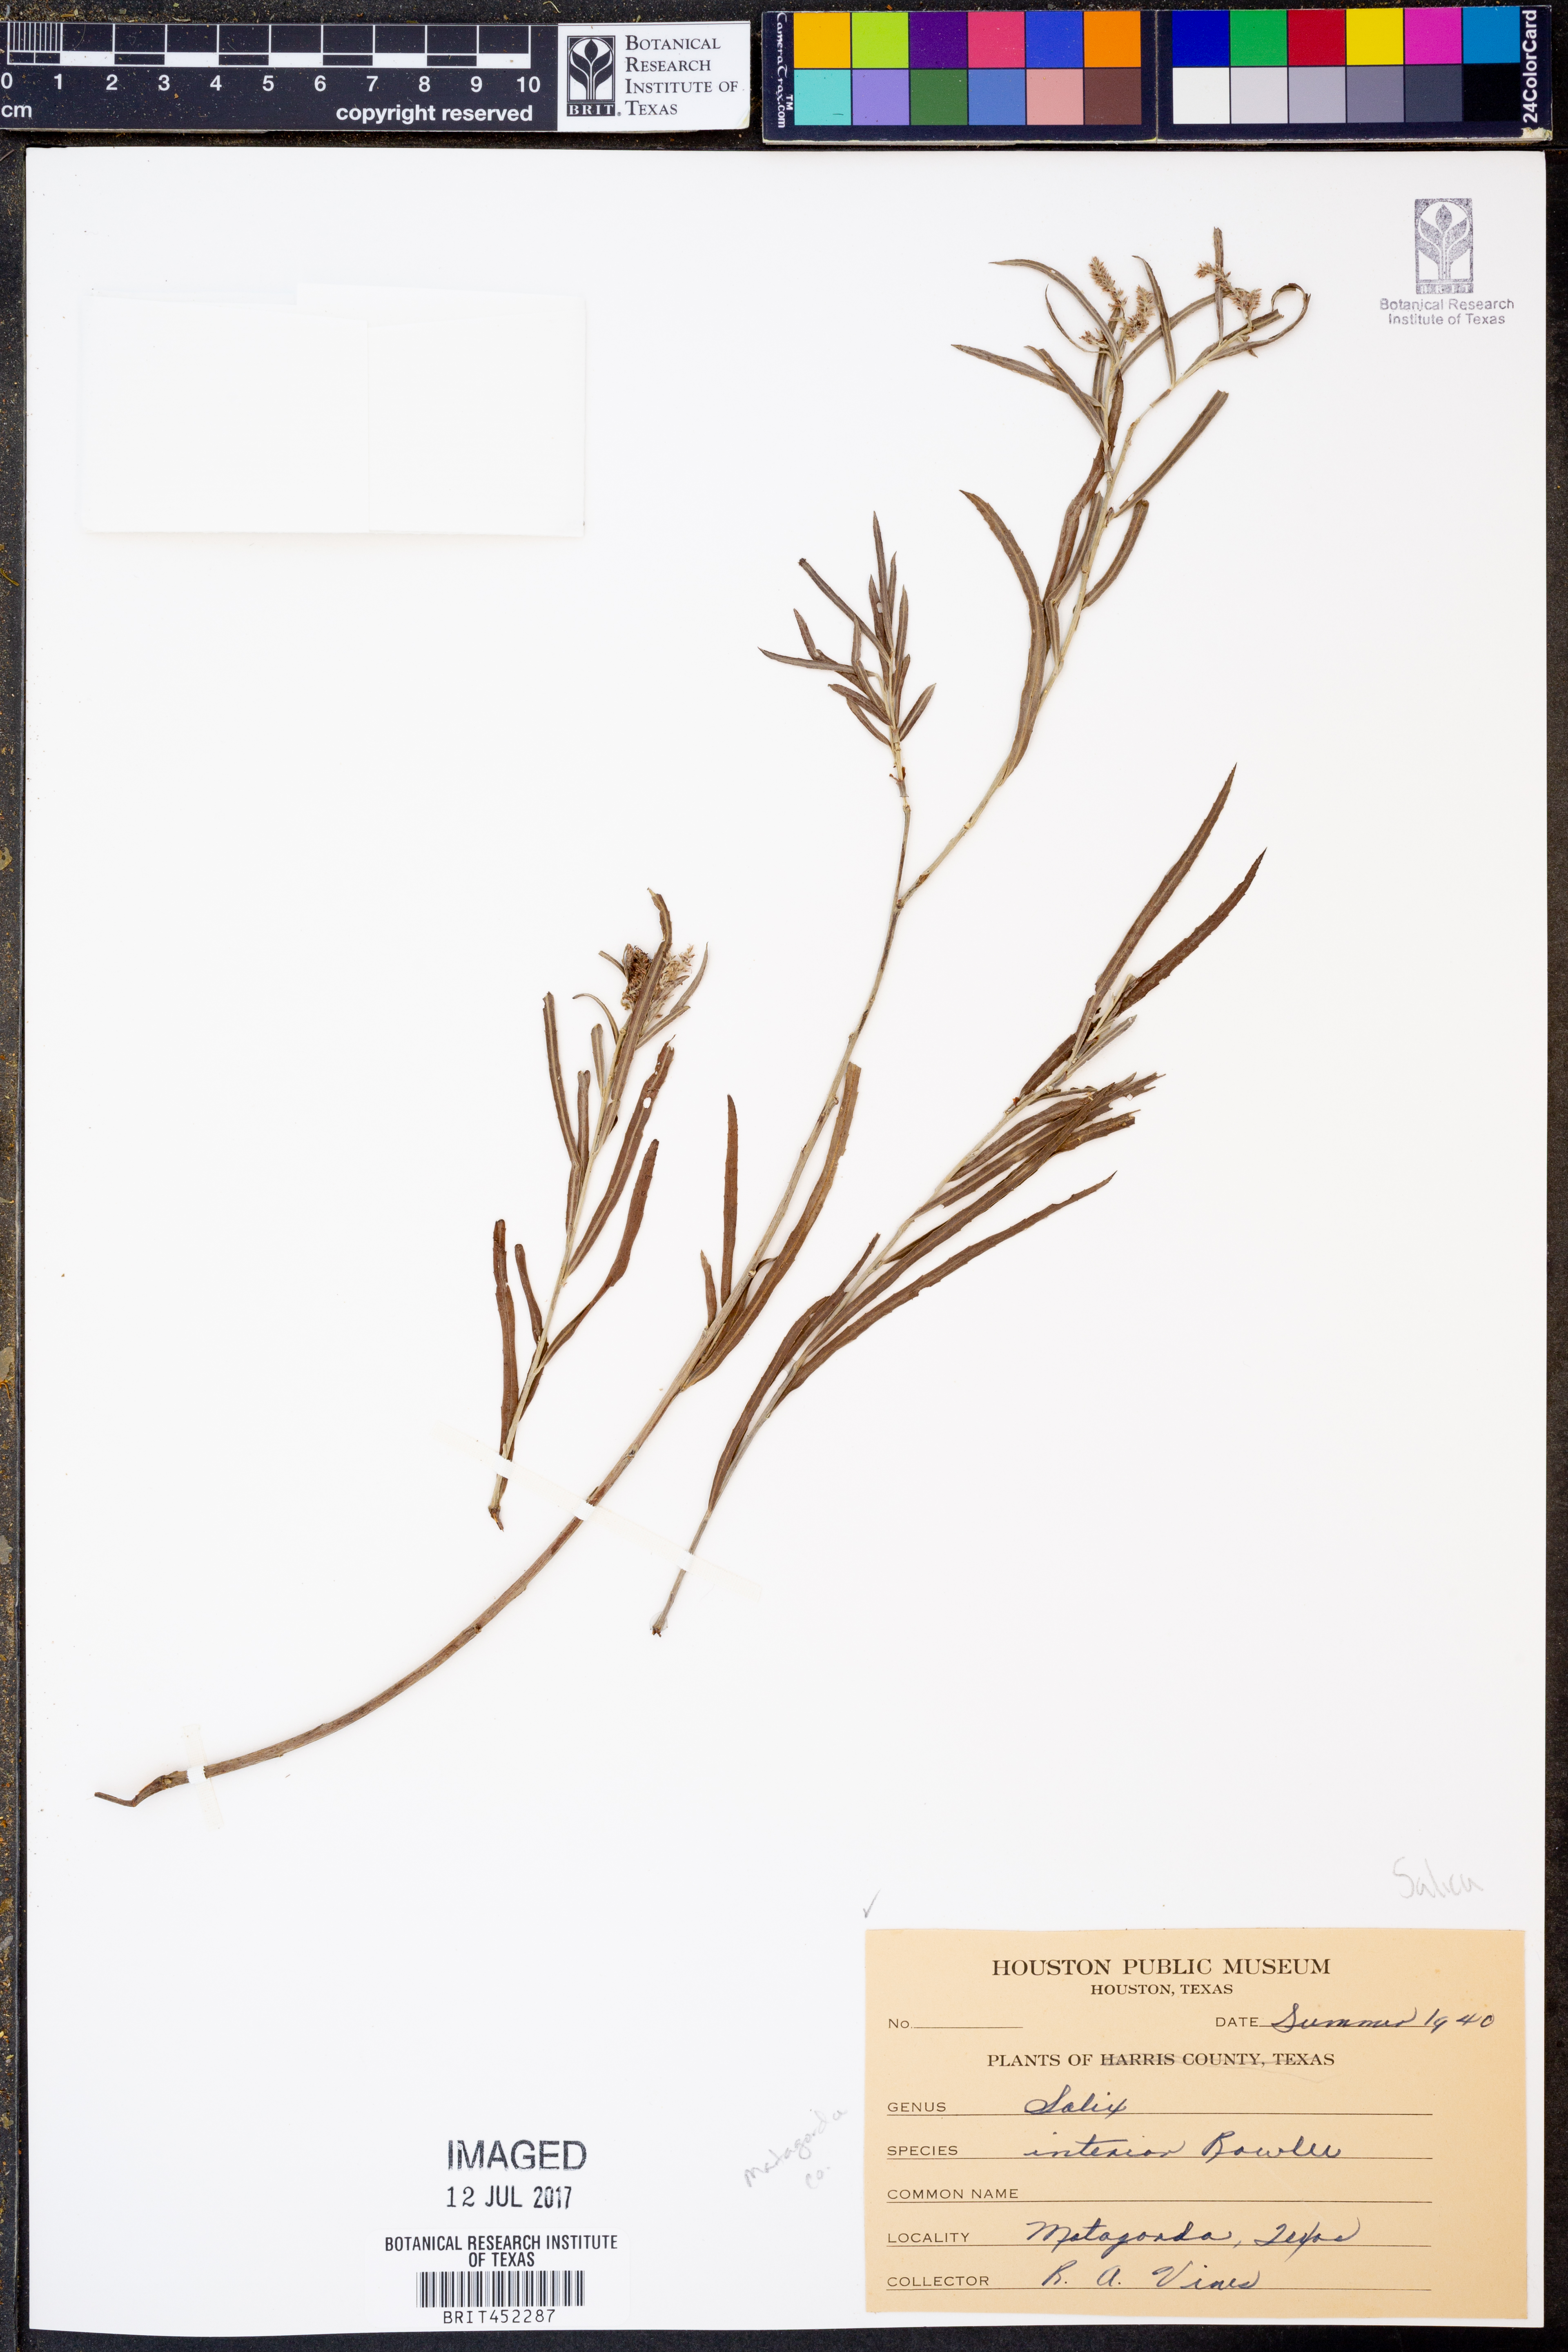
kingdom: Plantae
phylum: Tracheophyta
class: Magnoliopsida
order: Malpighiales
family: Salicaceae
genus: Salix
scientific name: Salix interior
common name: Sandbar willow
